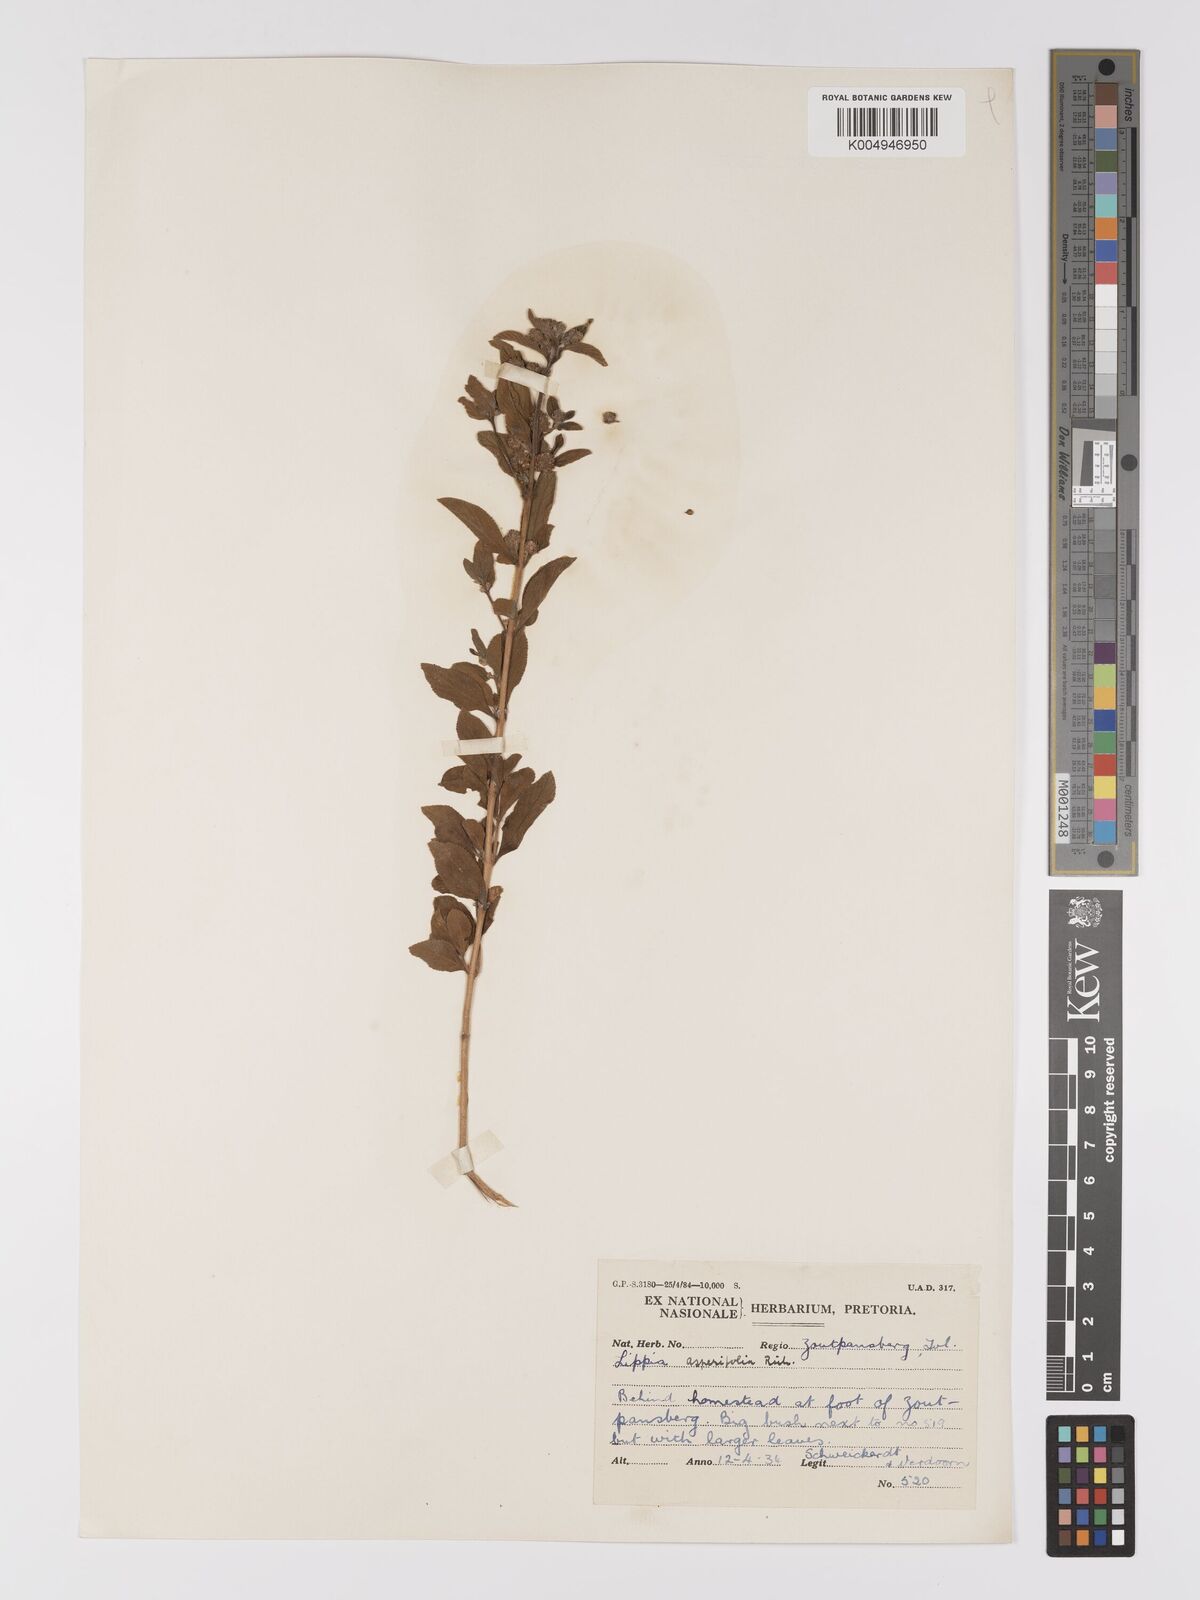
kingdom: Plantae
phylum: Tracheophyta
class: Magnoliopsida
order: Lamiales
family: Verbenaceae
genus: Lippia
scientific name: Lippia
